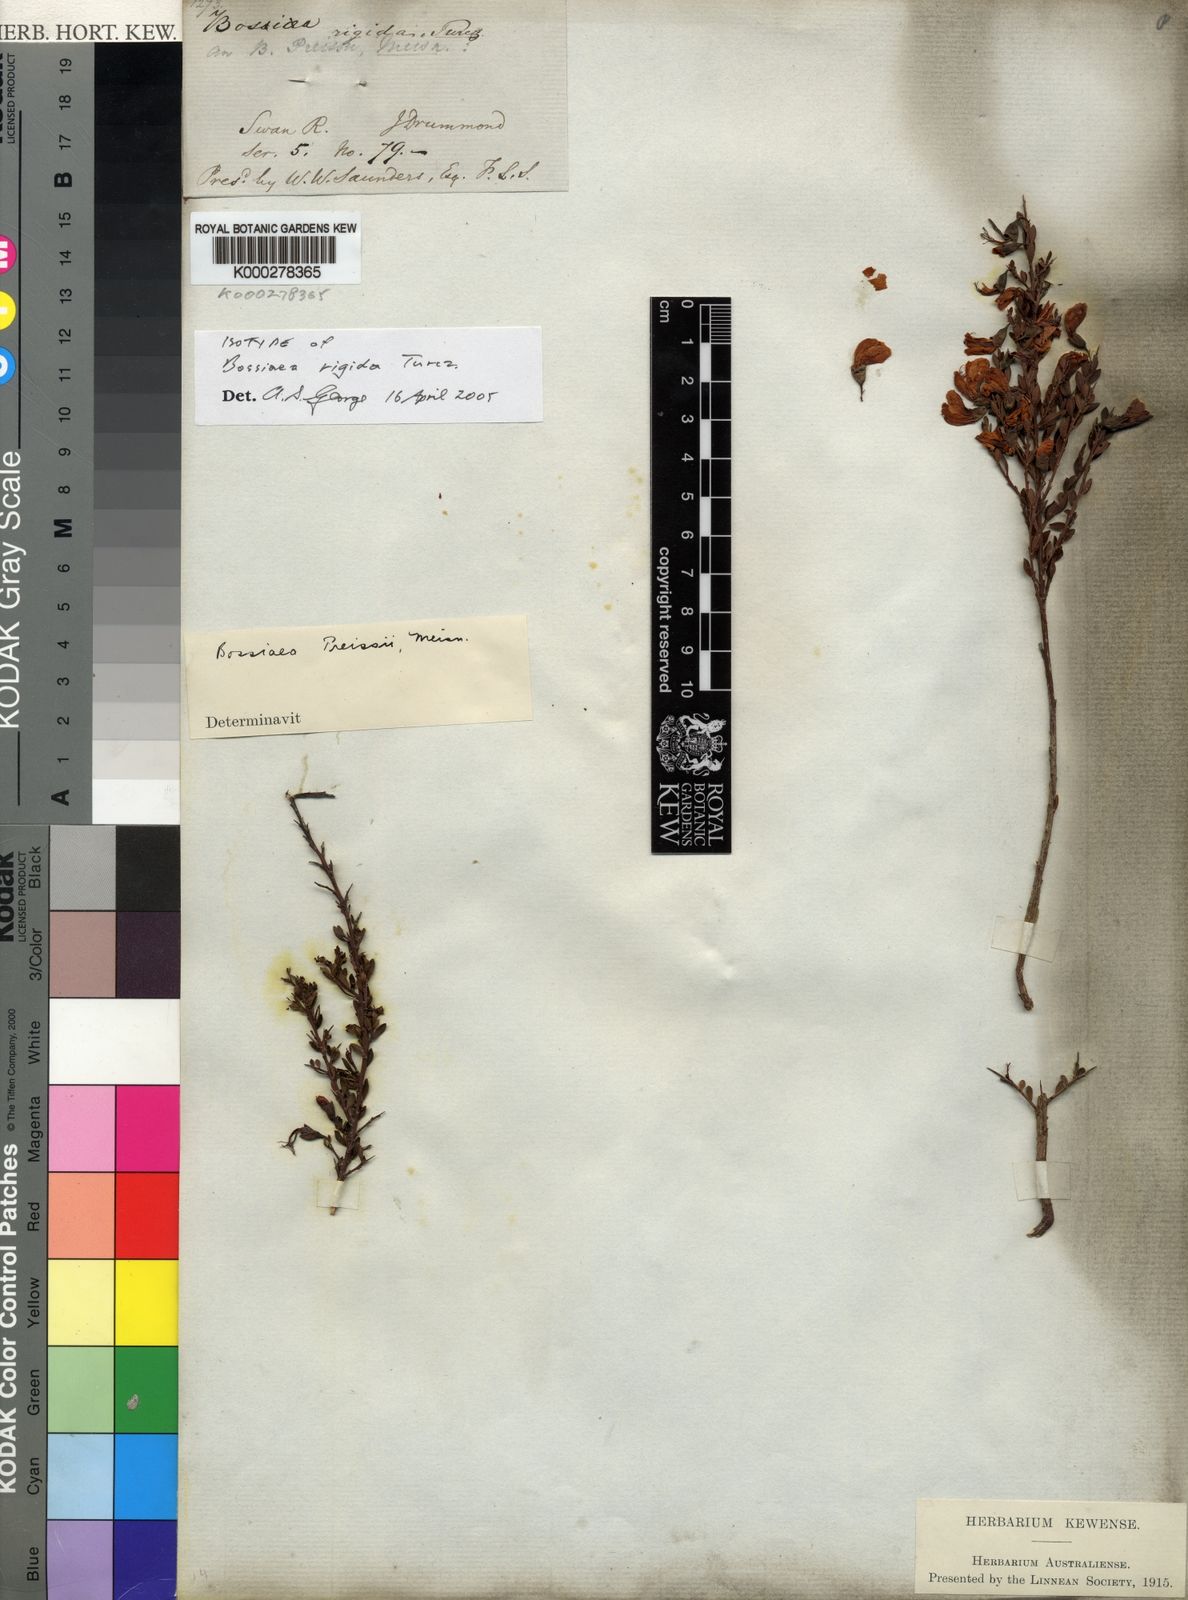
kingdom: Plantae
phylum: Tracheophyta
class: Magnoliopsida
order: Fabales
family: Fabaceae
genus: Bossiaea
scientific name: Bossiaea preissii
